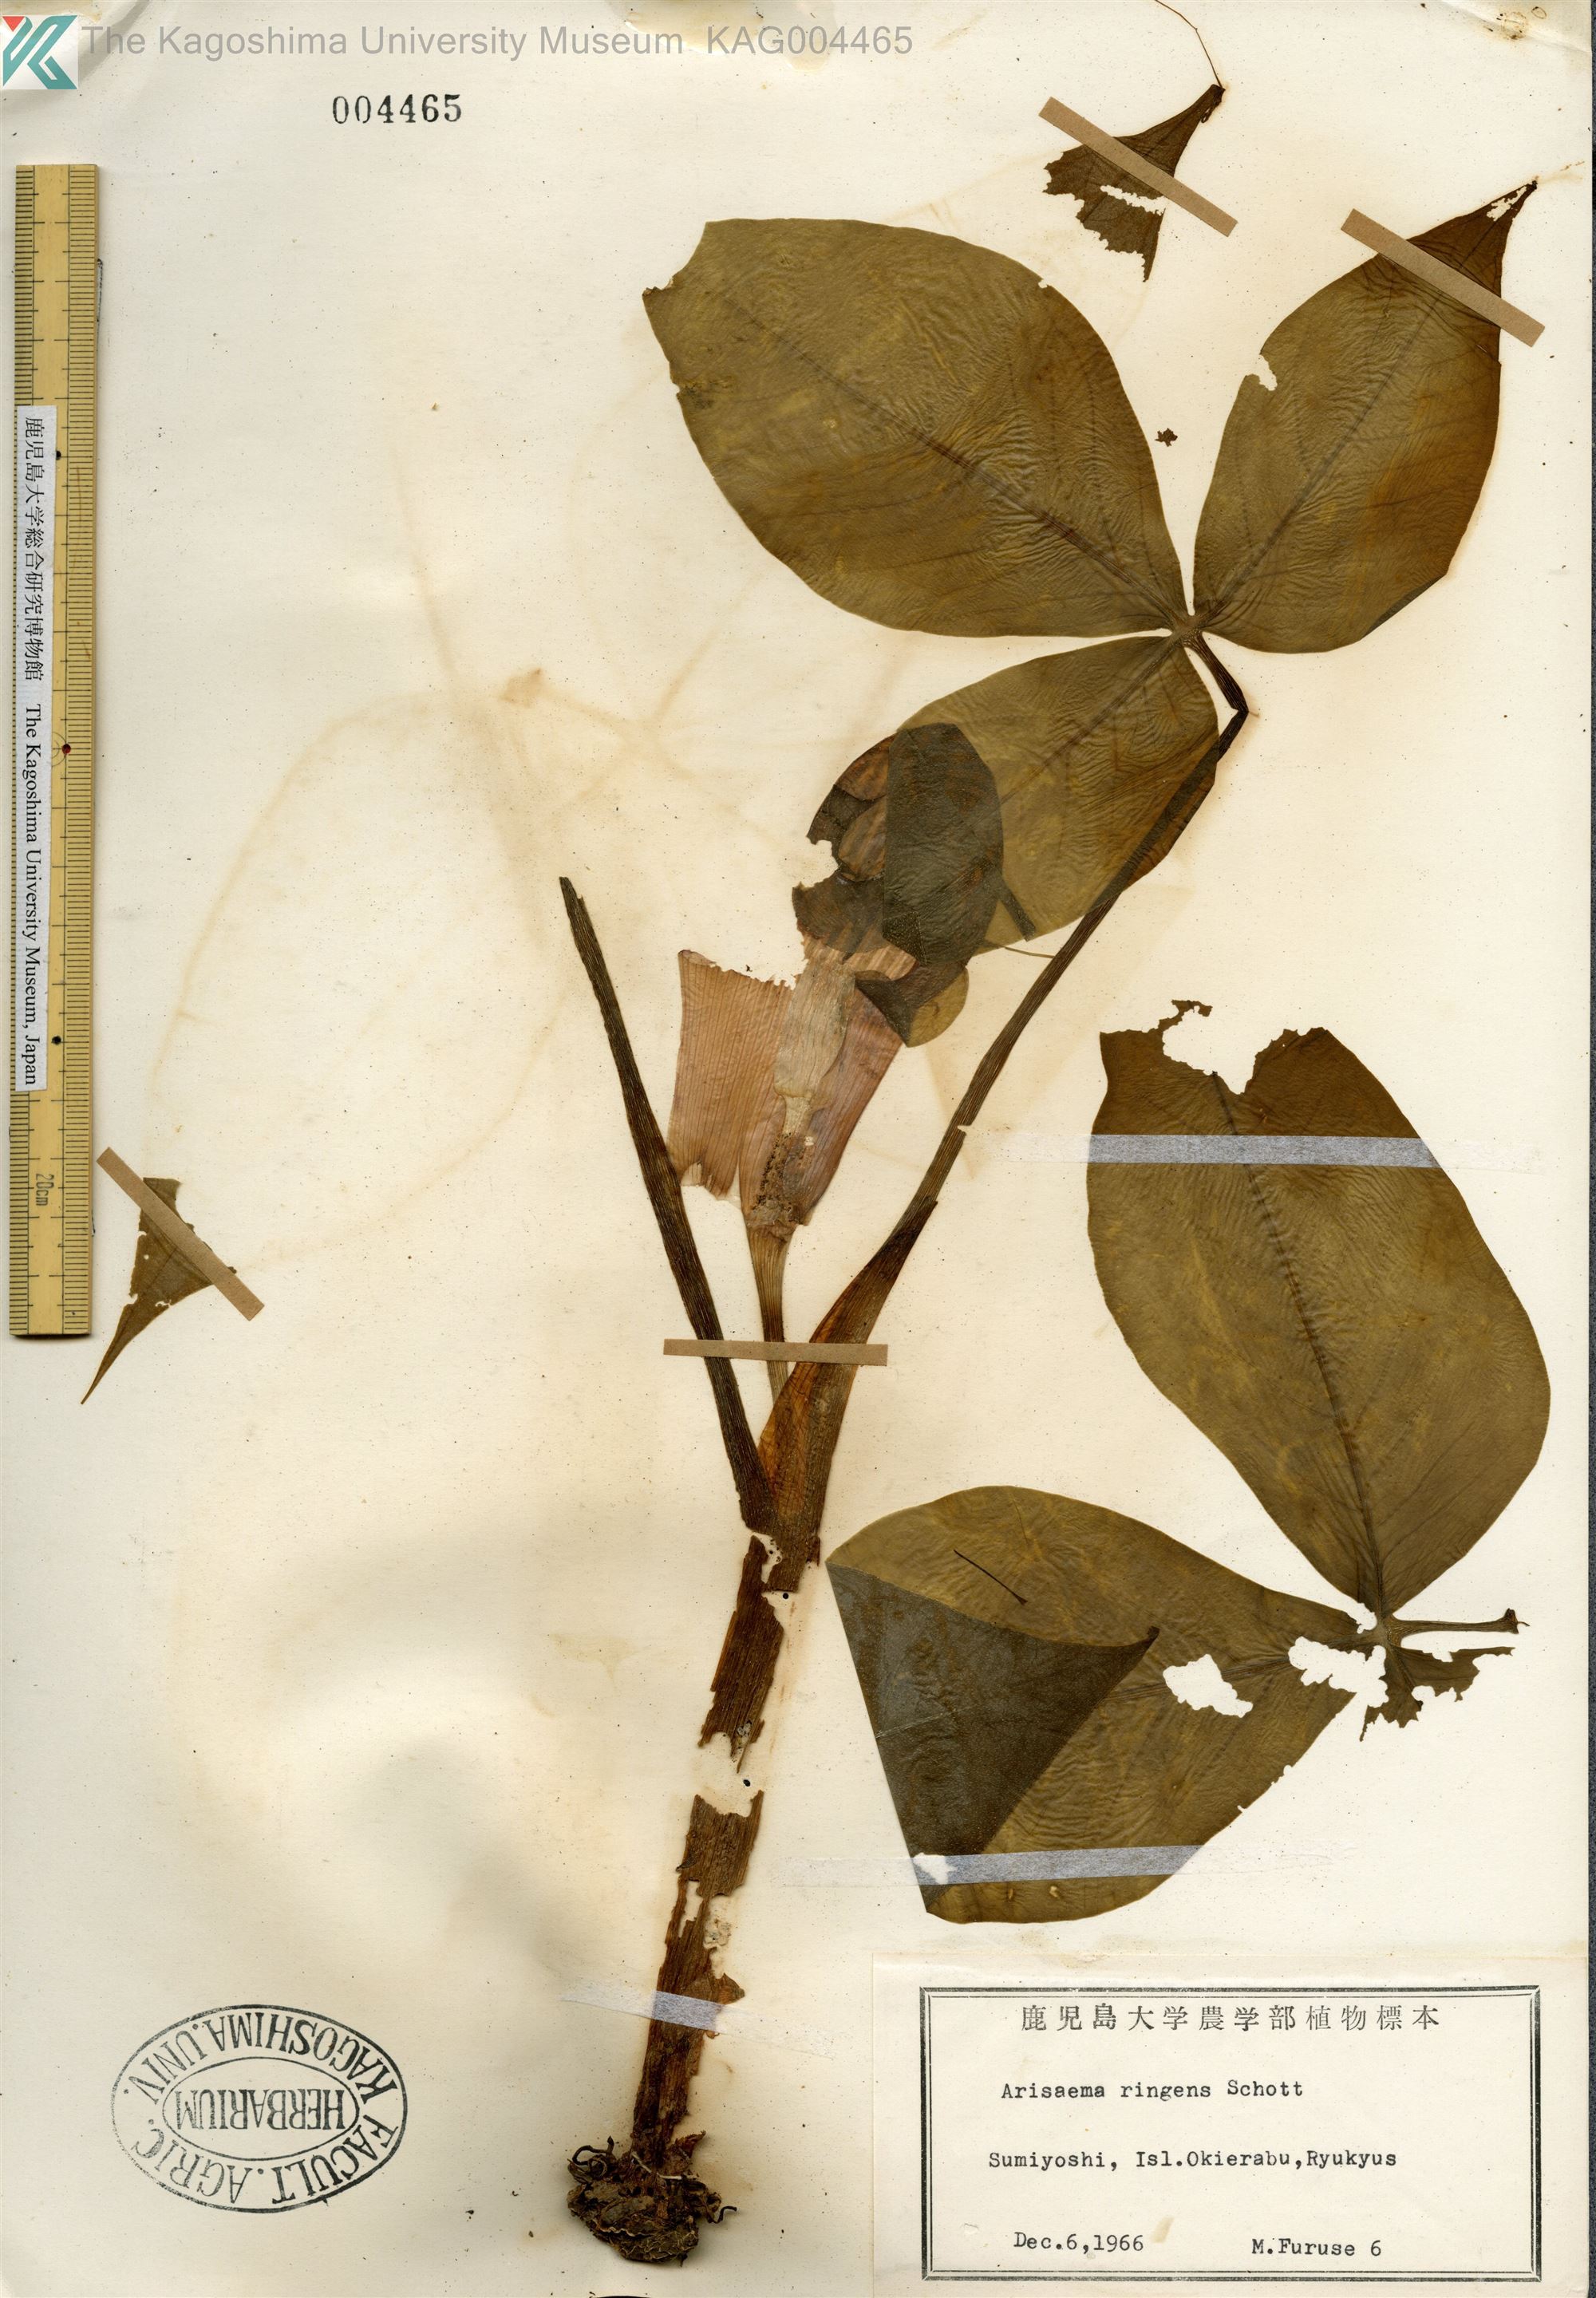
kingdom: Plantae
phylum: Tracheophyta
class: Liliopsida
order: Alismatales
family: Araceae
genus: Arisaema
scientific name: Arisaema ringens
